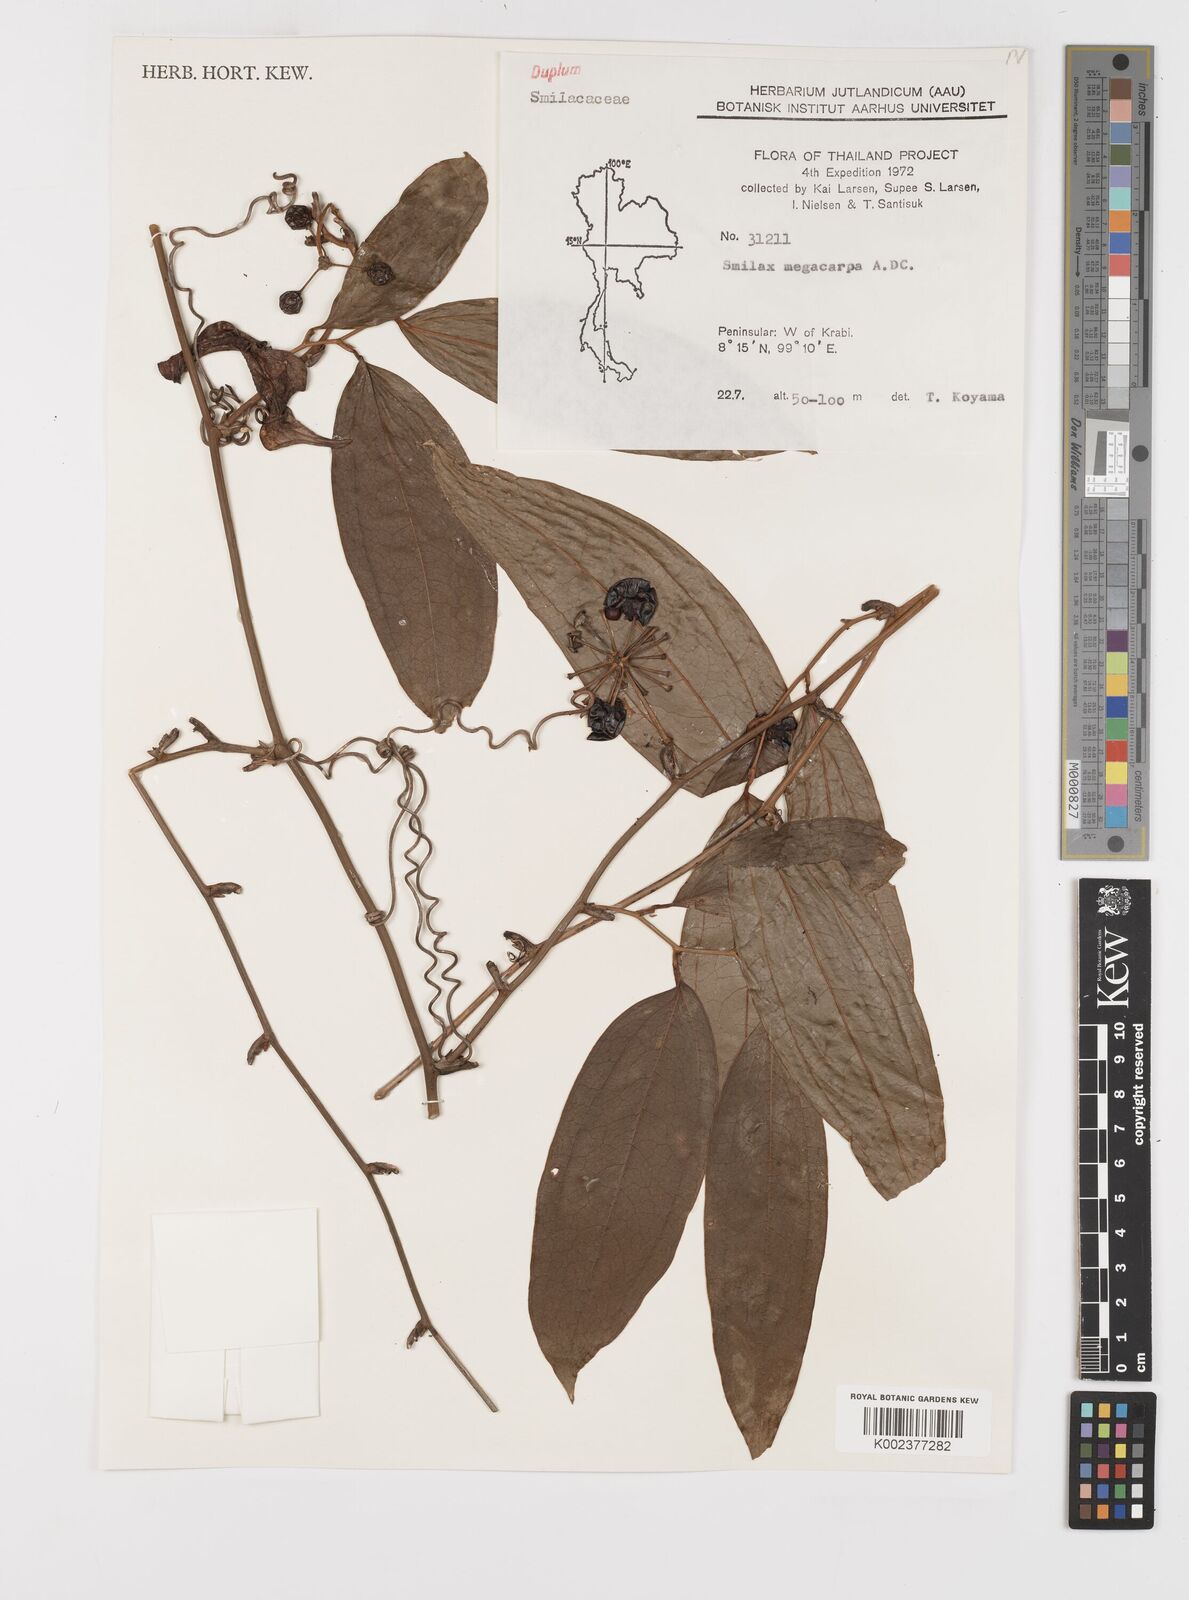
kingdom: Plantae
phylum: Tracheophyta
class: Liliopsida
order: Liliales
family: Smilacaceae
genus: Smilax
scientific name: Smilax megacarpa
